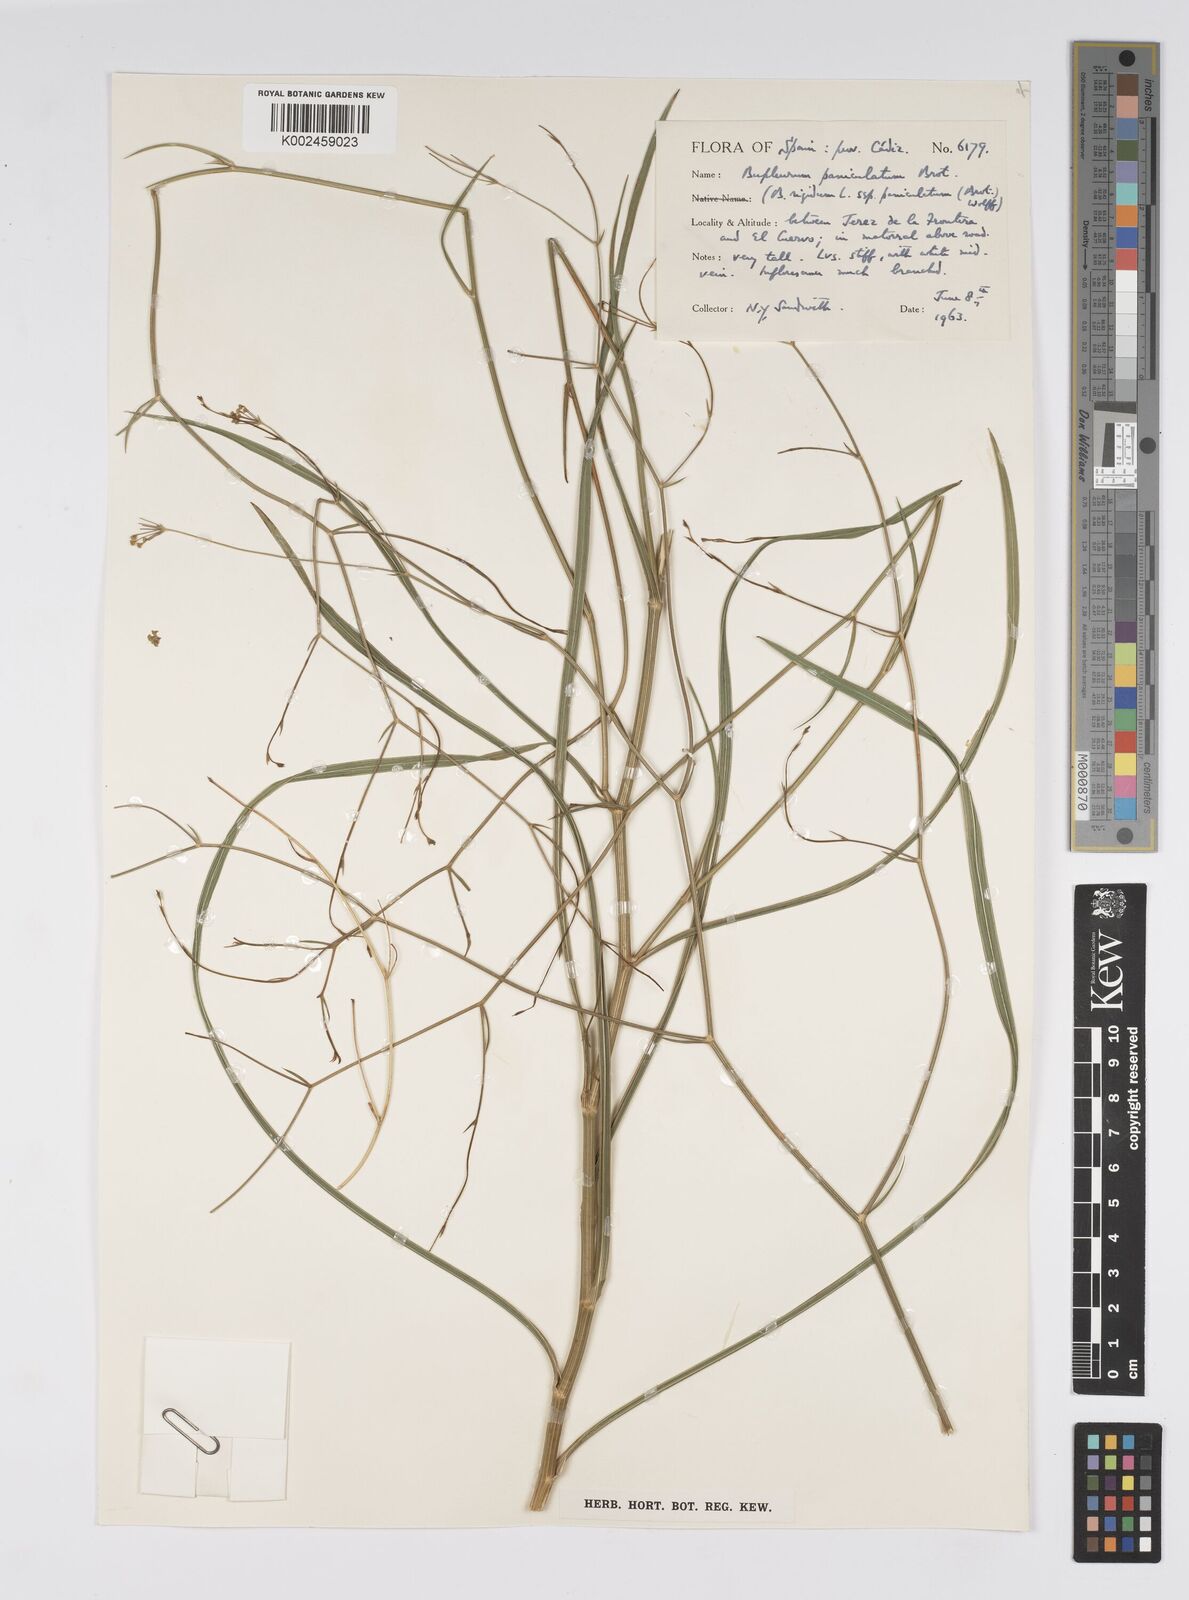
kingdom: Plantae
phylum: Tracheophyta
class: Magnoliopsida
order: Apiales
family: Apiaceae
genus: Bupleurum
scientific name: Bupleurum rigidum
